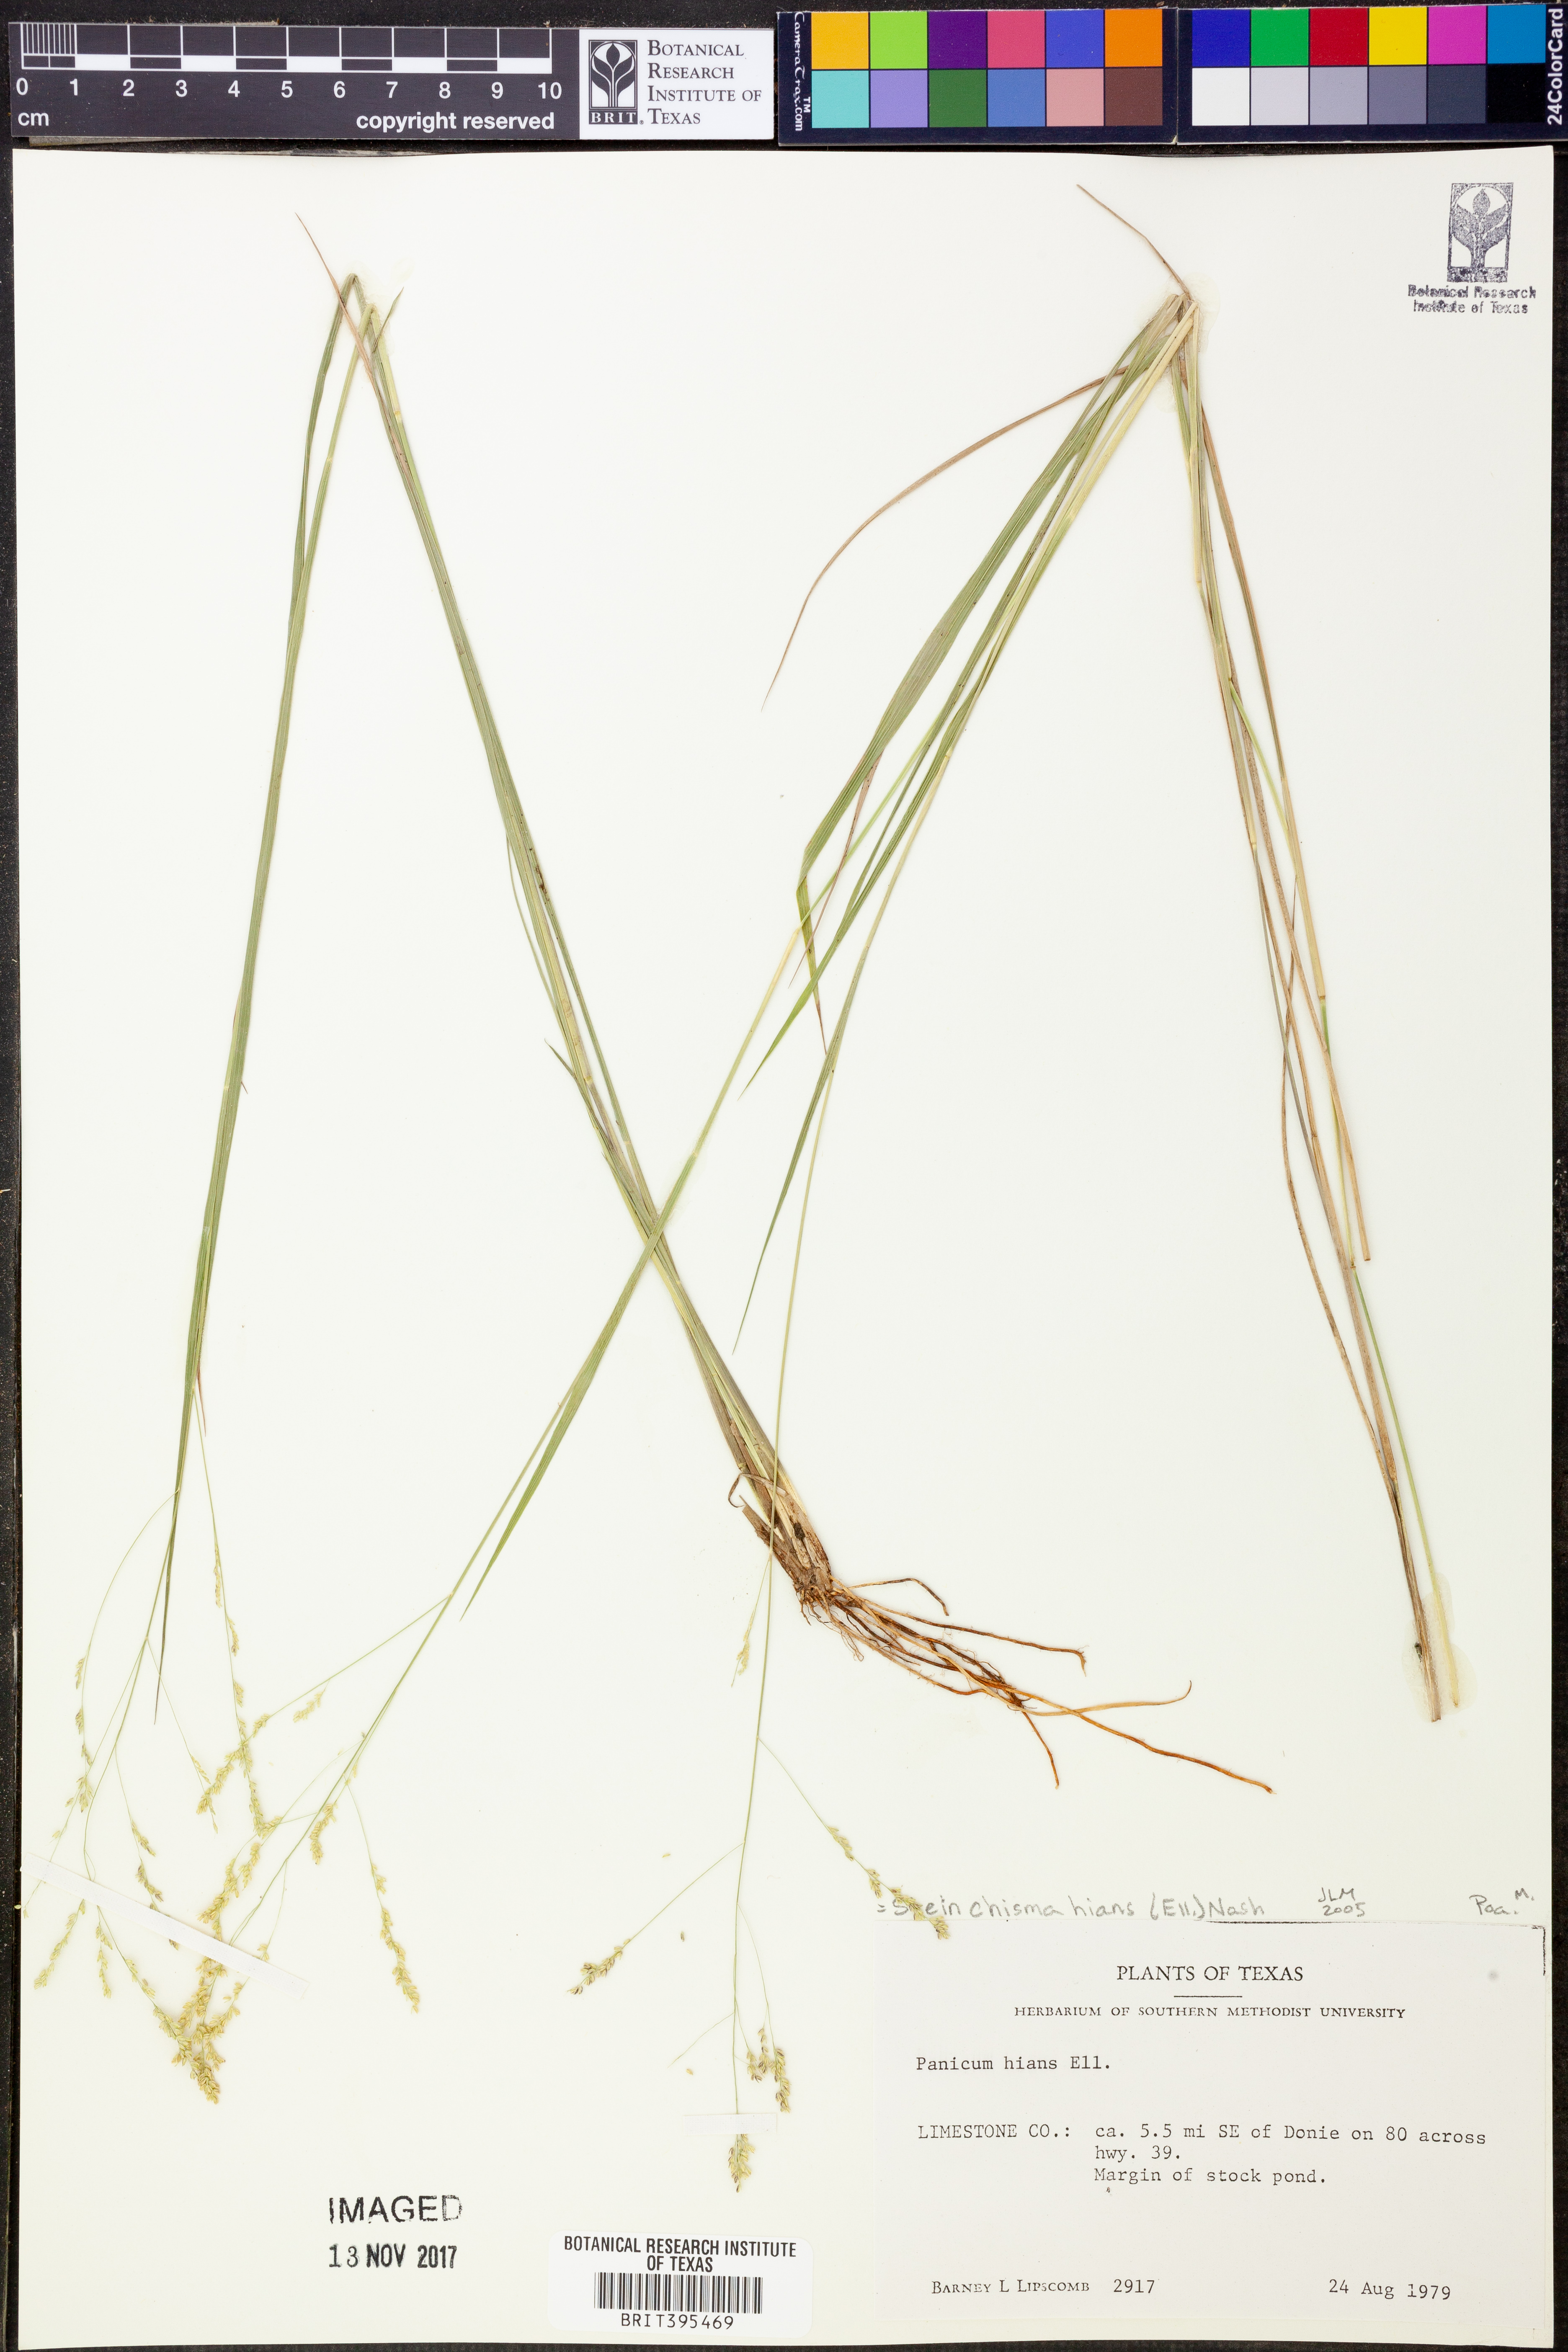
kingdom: Plantae
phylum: Tracheophyta
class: Liliopsida
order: Poales
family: Poaceae
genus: Steinchisma
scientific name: Steinchisma hians
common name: Gaping panic grass
